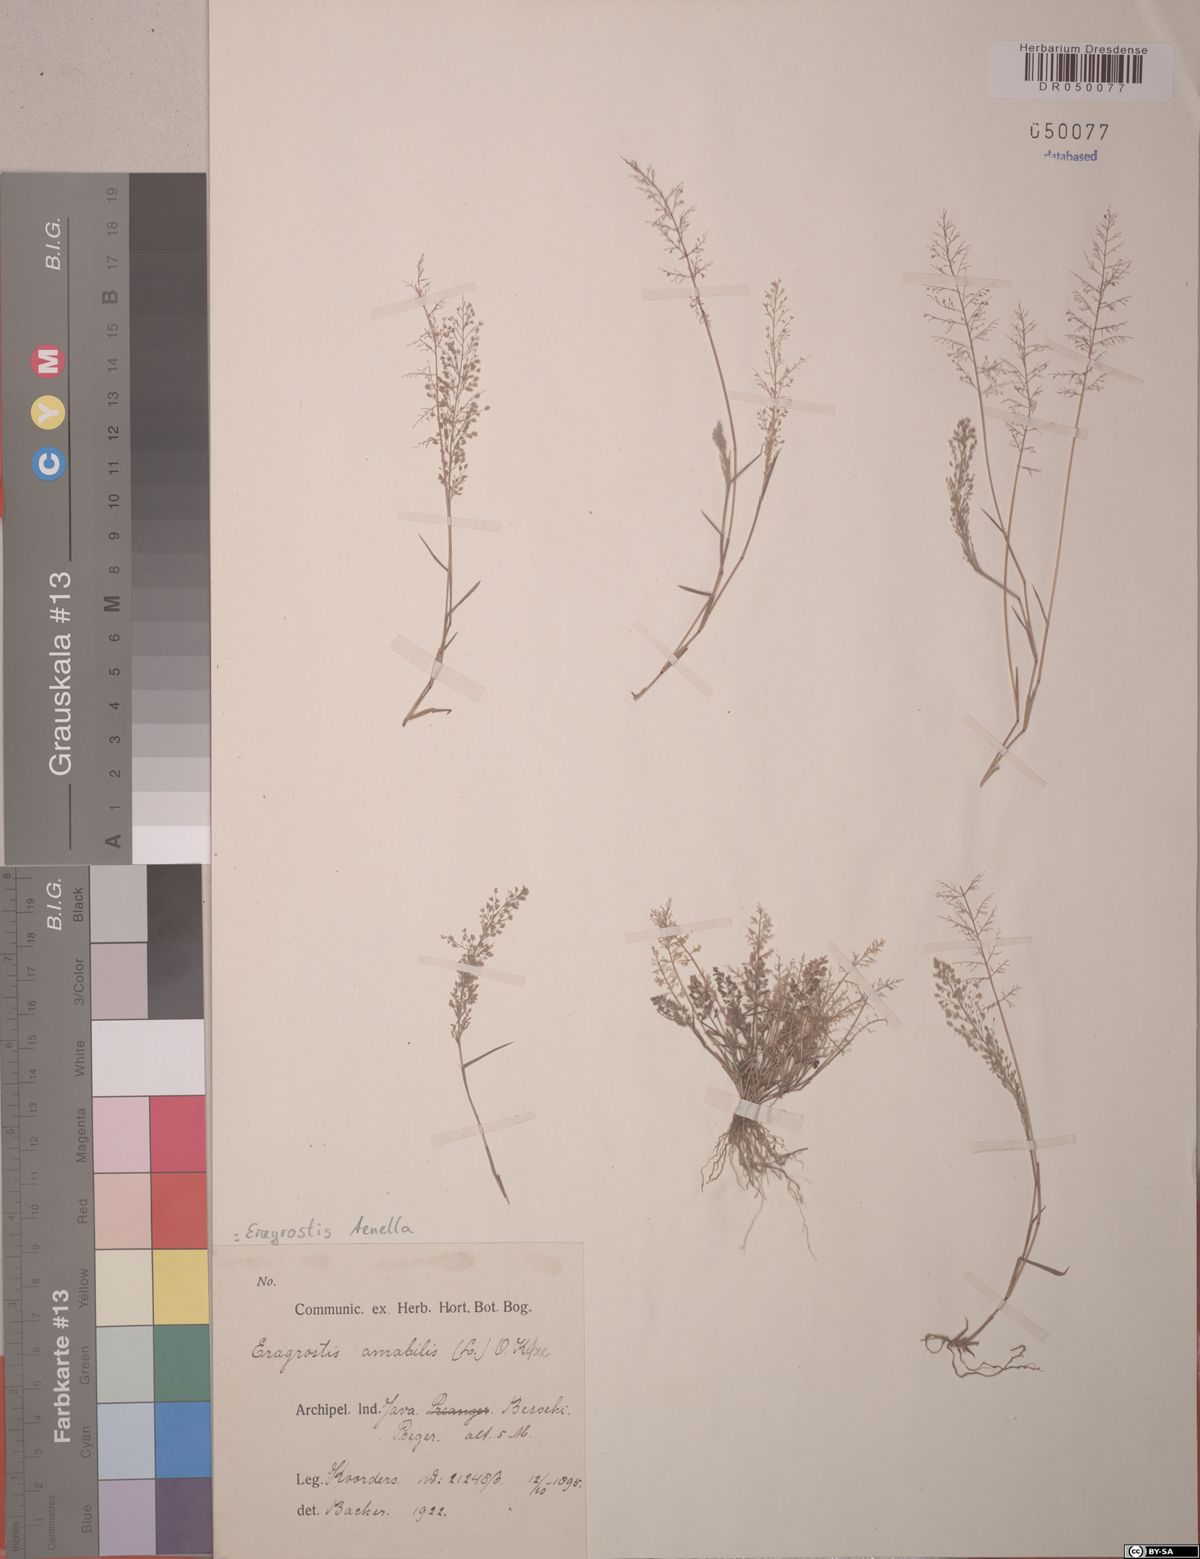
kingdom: Plantae
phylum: Tracheophyta
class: Liliopsida
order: Poales
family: Poaceae
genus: Eragrostis
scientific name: Eragrostis tenella
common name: Japanese lovegrass
